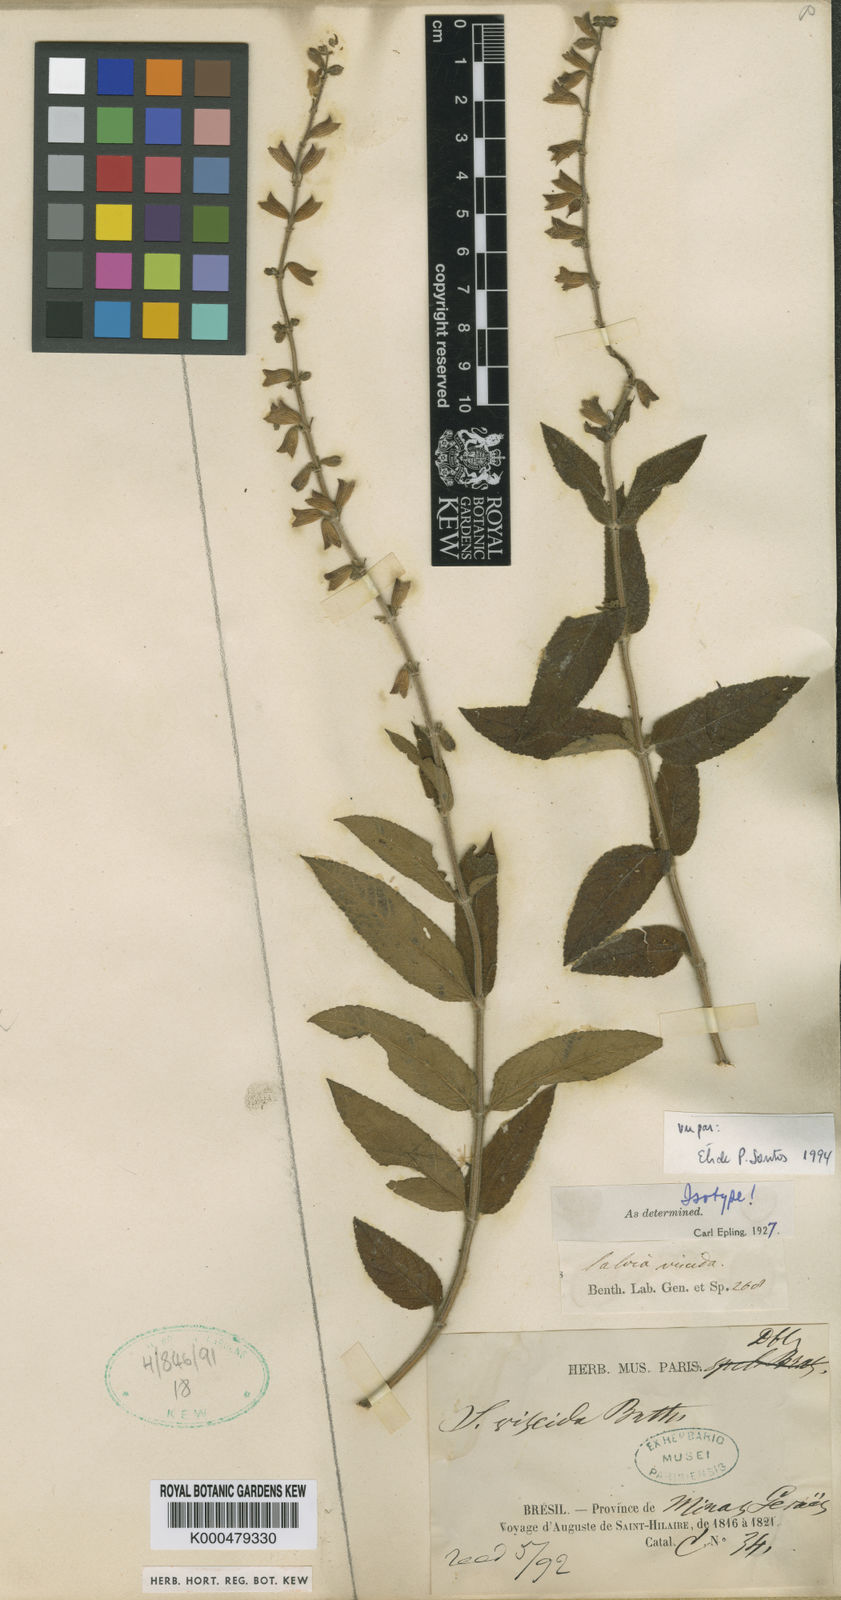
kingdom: Plantae
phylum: Tracheophyta
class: Magnoliopsida
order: Lamiales
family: Lamiaceae
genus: Salvia
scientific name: Salvia nervosa
